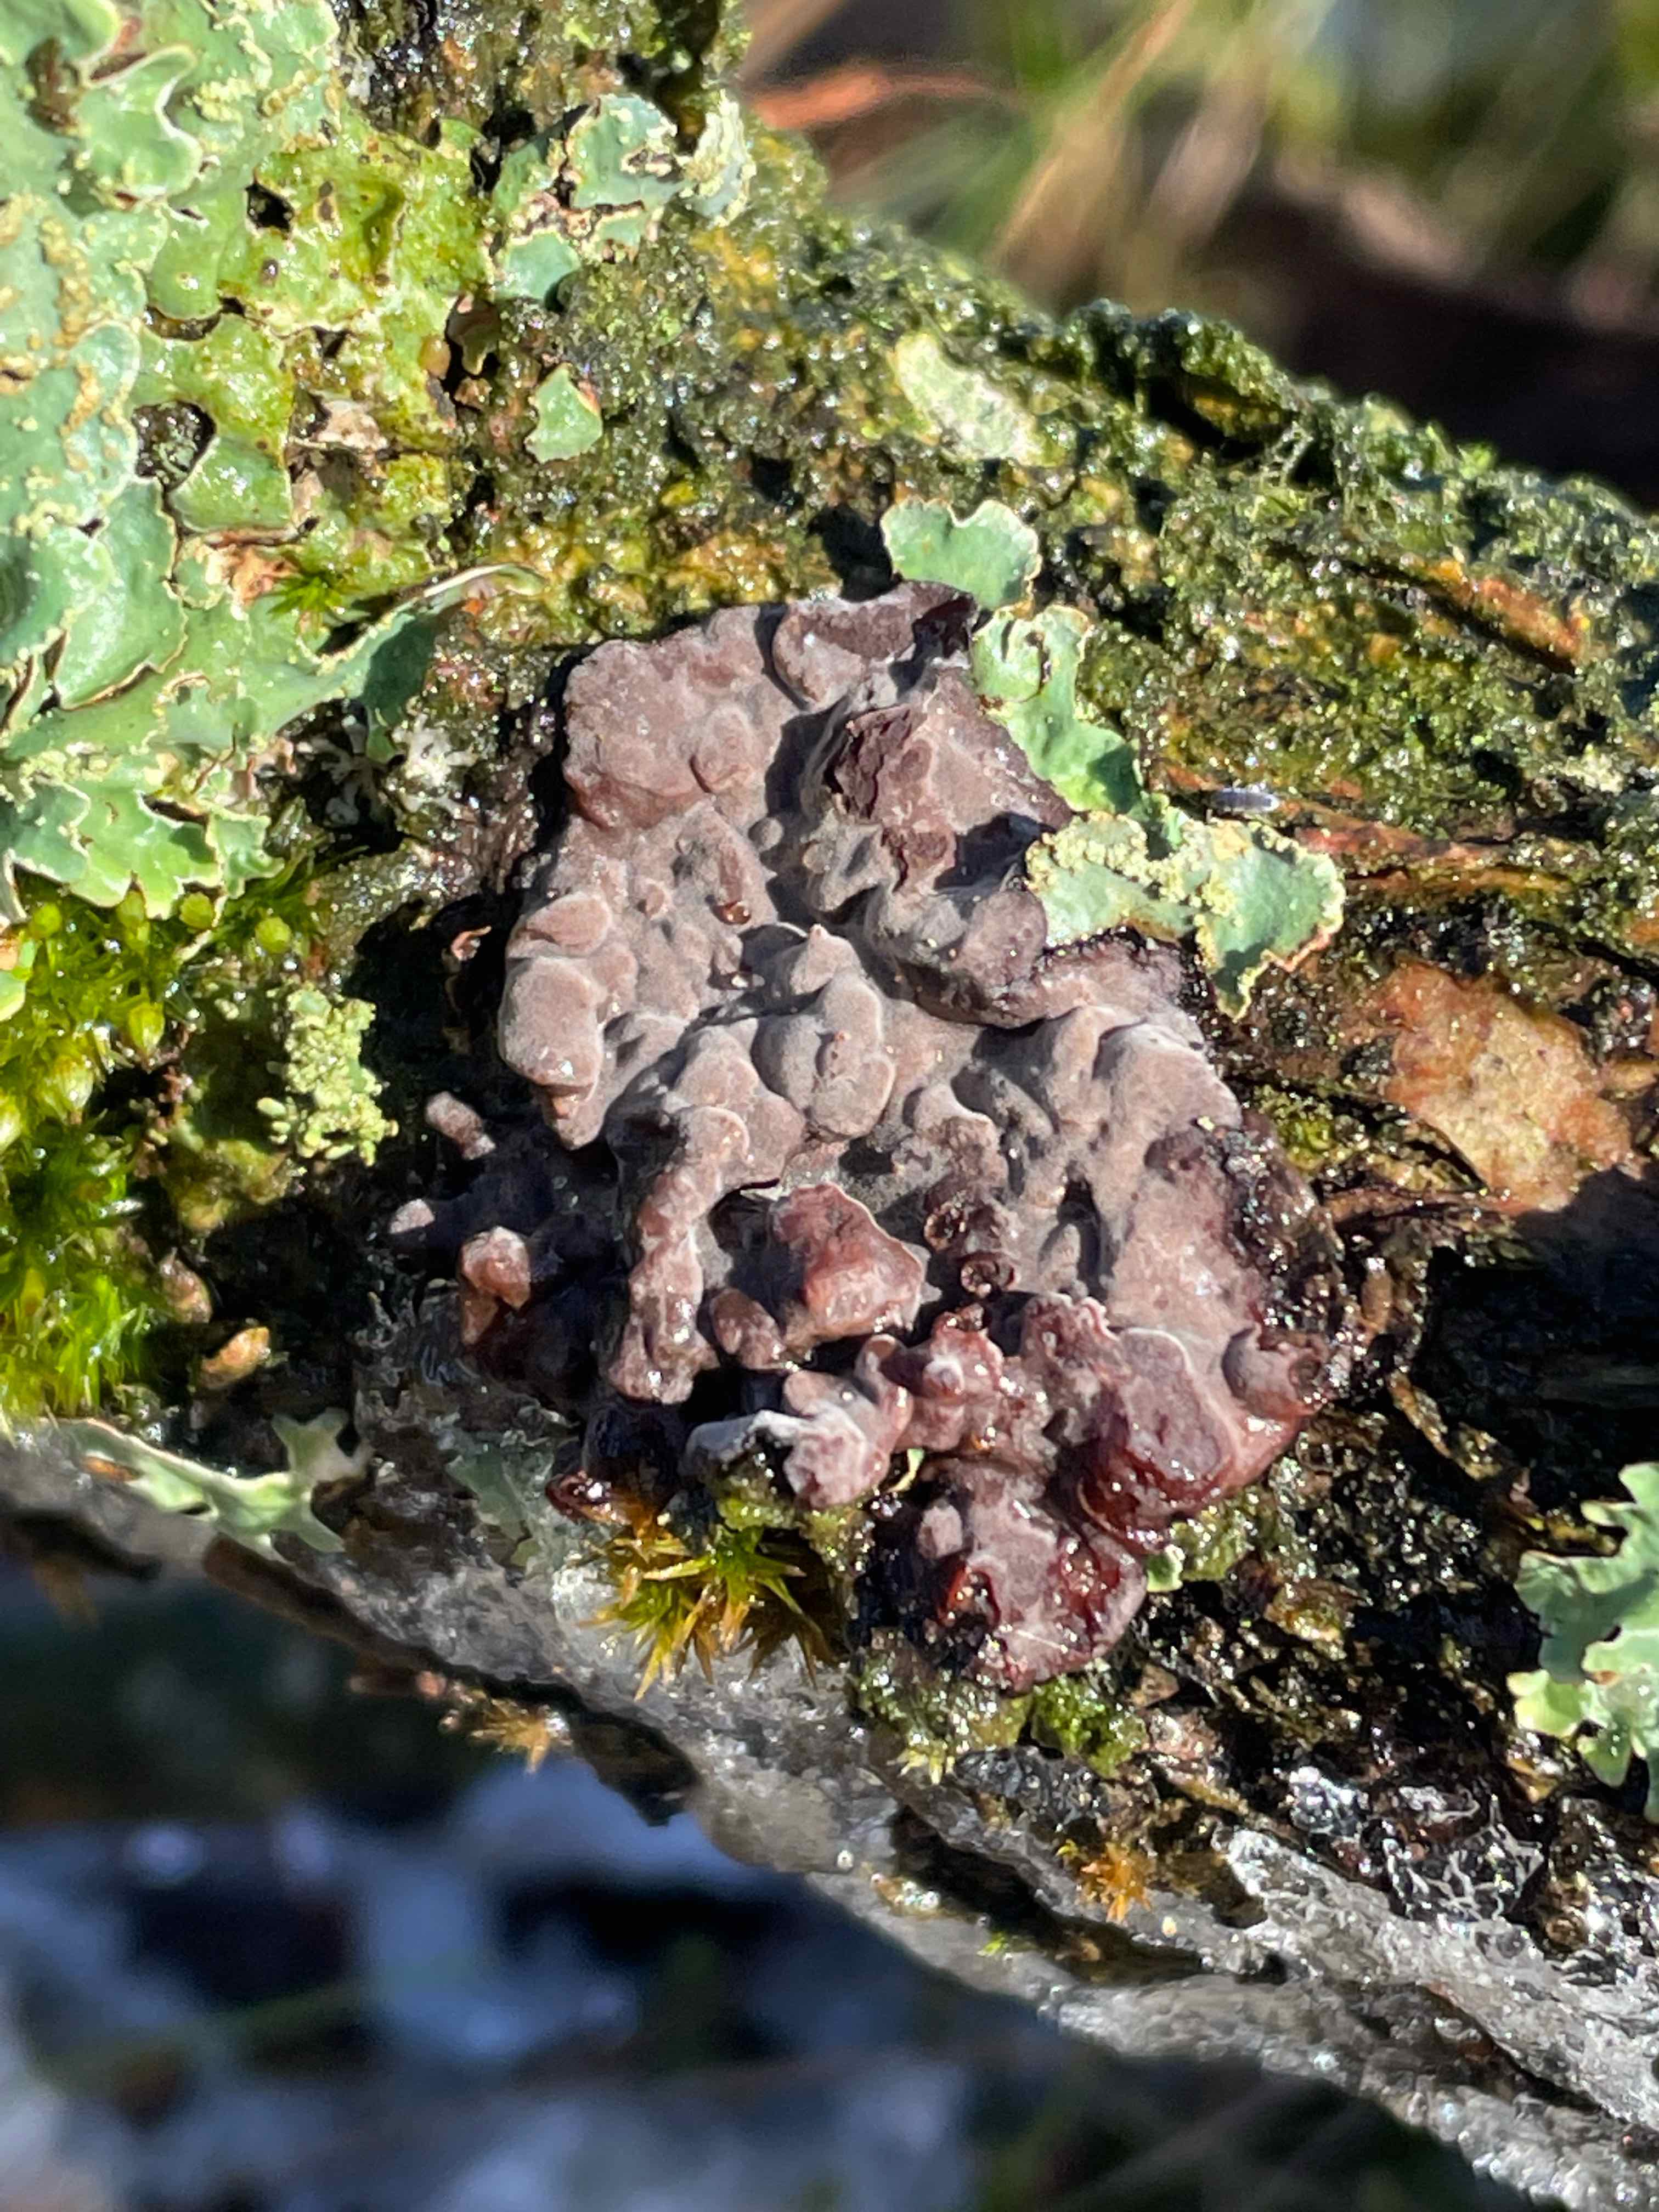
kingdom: Fungi
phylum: Basidiomycota
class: Agaricomycetes
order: Russulales
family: Peniophoraceae
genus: Peniophora
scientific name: Peniophora quercina
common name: ege-voksskind
